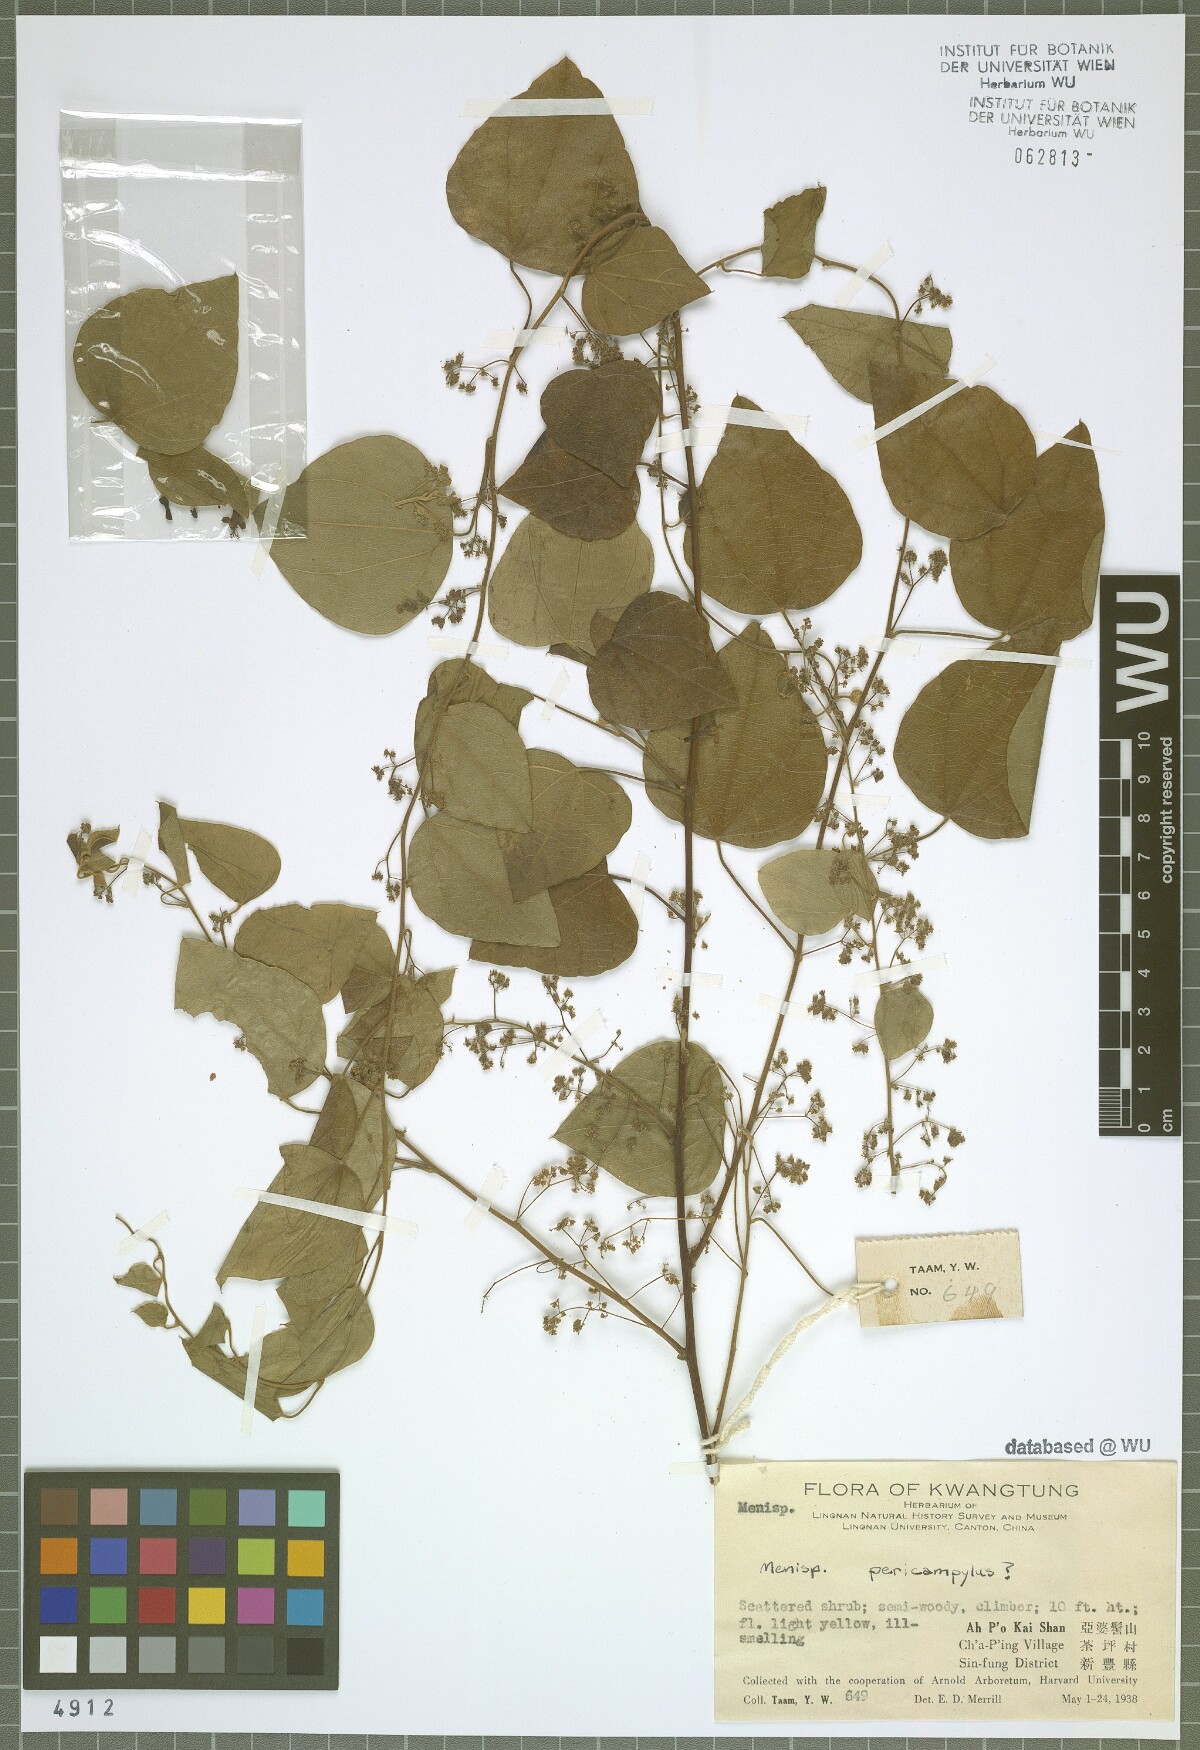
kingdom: Plantae
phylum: Tracheophyta
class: Magnoliopsida
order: Ranunculales
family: Menispermaceae
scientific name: Menispermaceae
